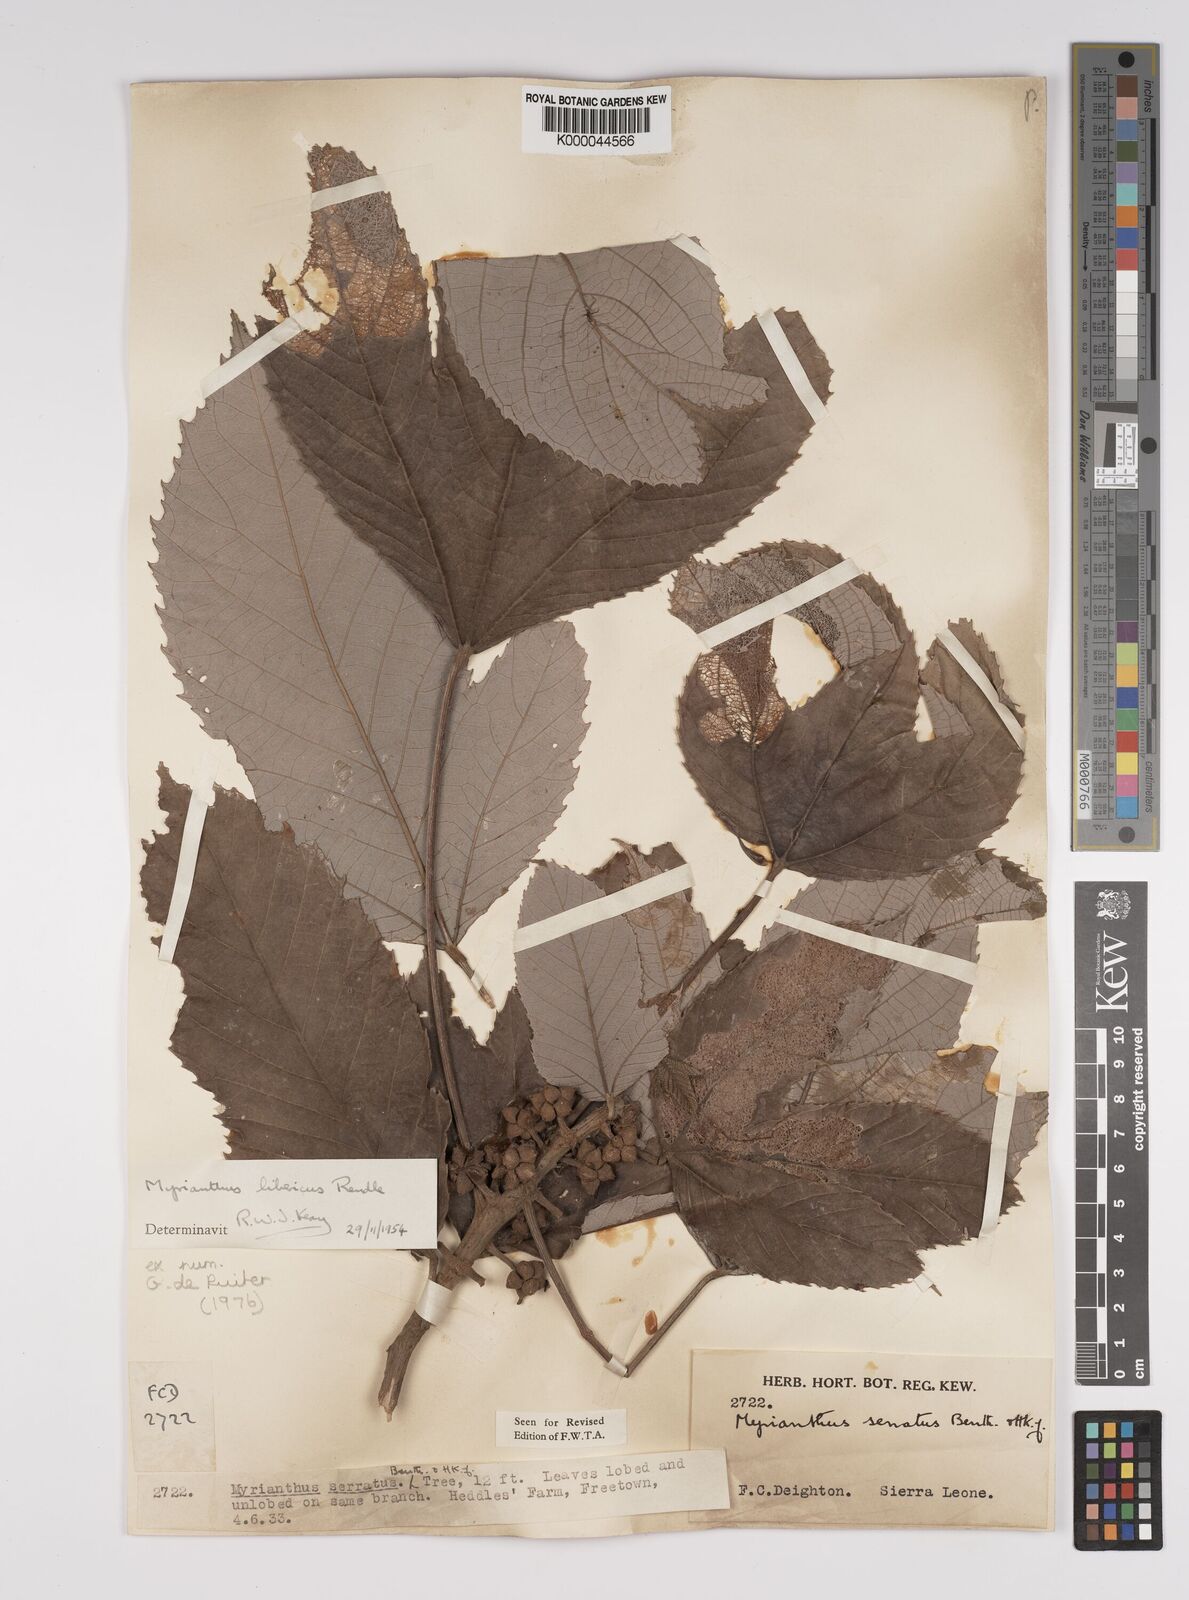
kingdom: Plantae
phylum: Tracheophyta
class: Magnoliopsida
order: Rosales
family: Urticaceae
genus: Myrianthus
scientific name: Myrianthus libericus
